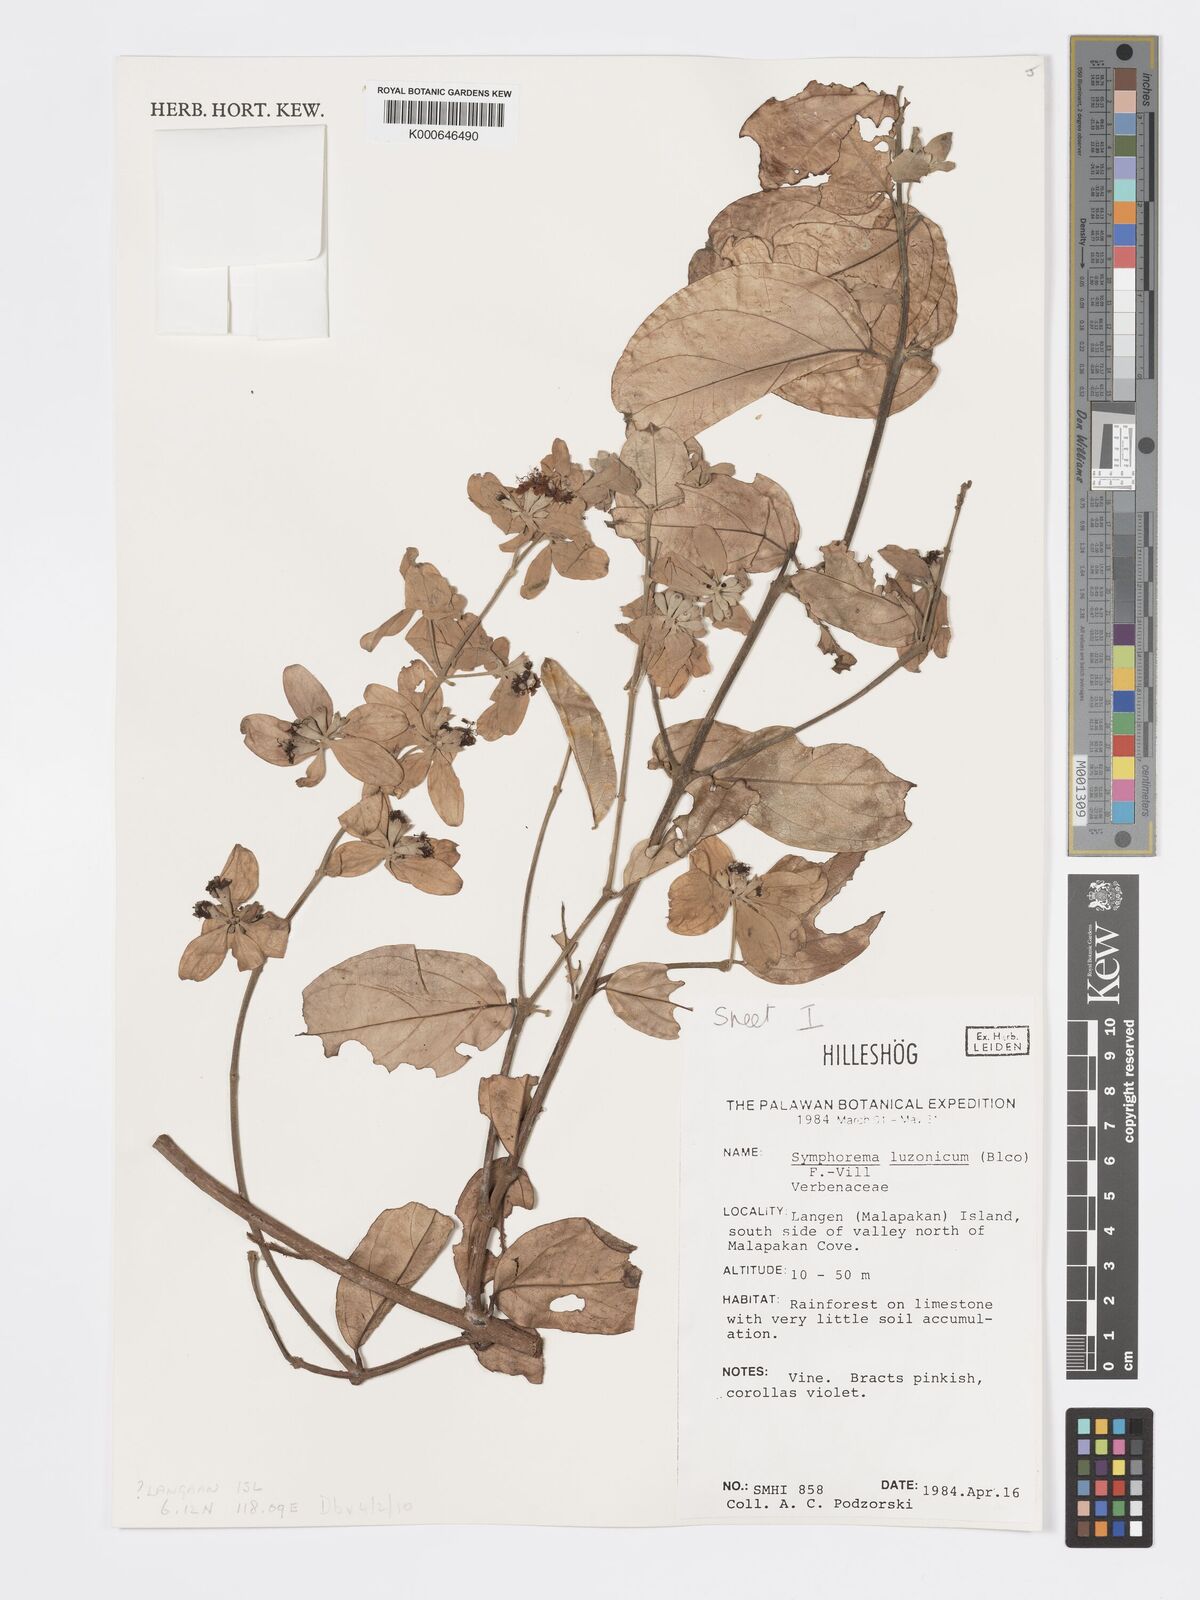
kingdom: Plantae
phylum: Tracheophyta
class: Magnoliopsida
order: Lamiales
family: Lamiaceae
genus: Symphorema
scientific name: Symphorema luzonicum
